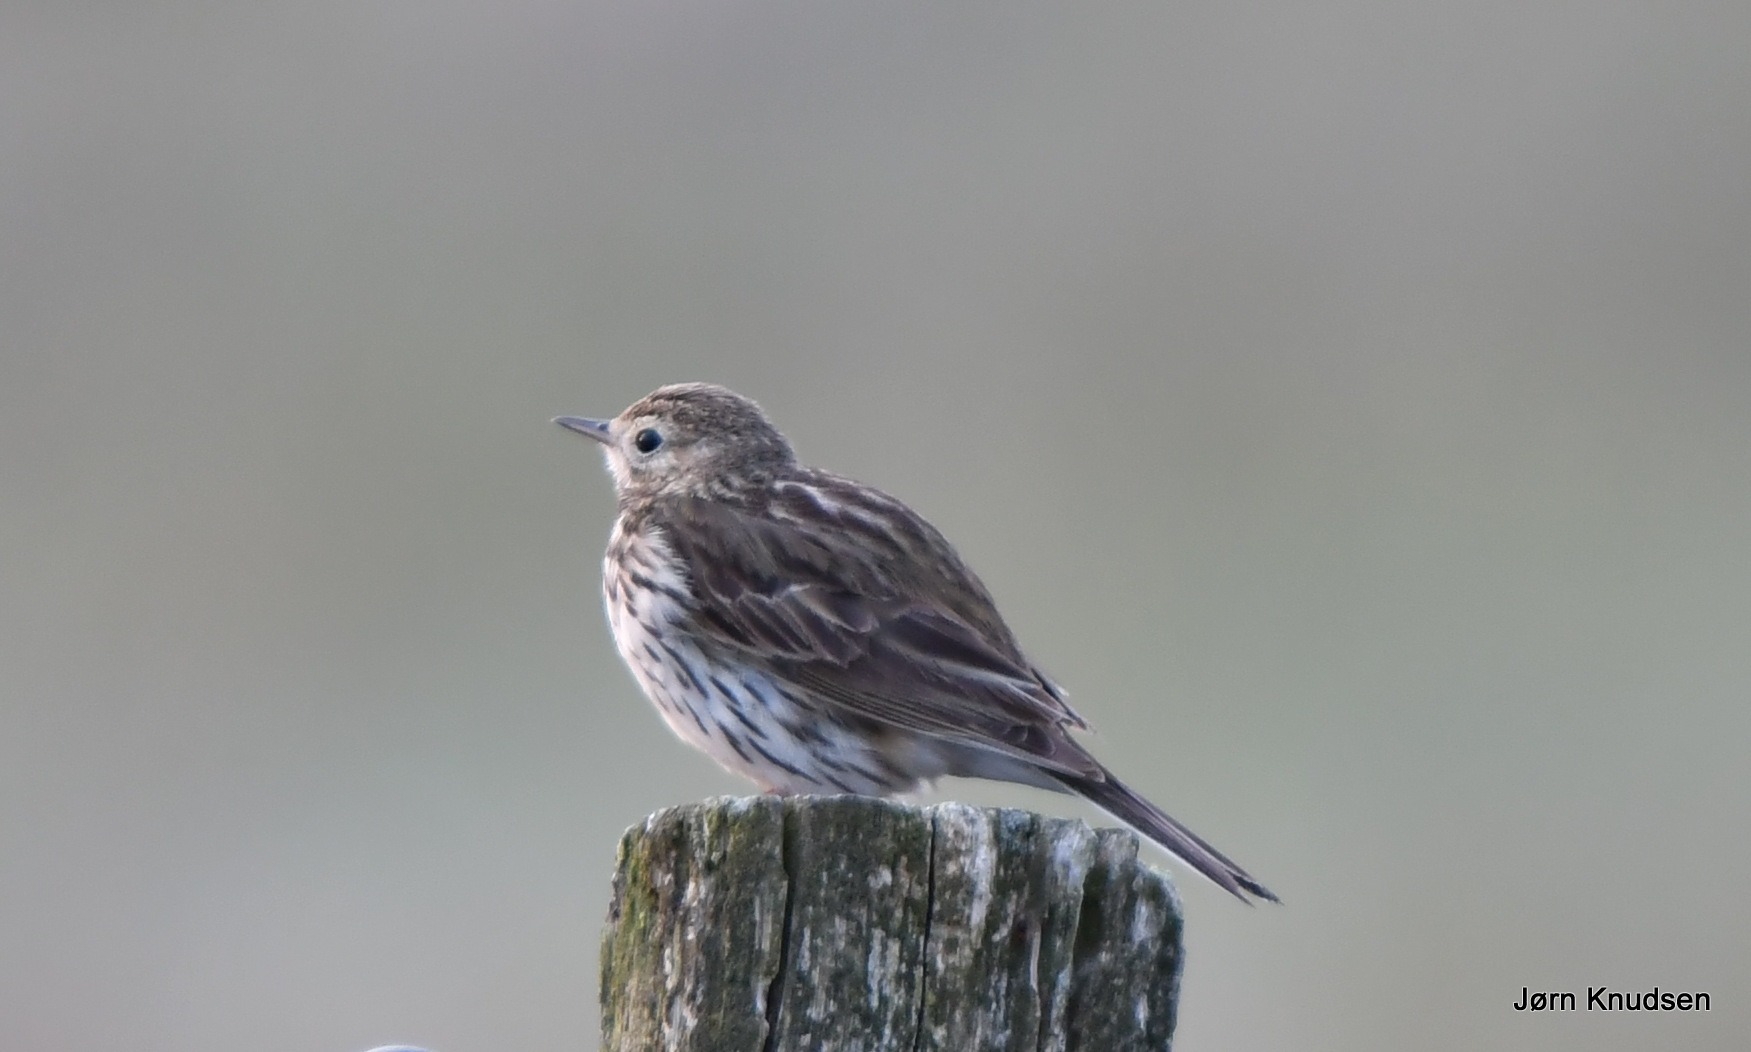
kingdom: Animalia
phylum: Chordata
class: Aves
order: Passeriformes
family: Motacillidae
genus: Anthus
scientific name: Anthus pratensis
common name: Engpiber
